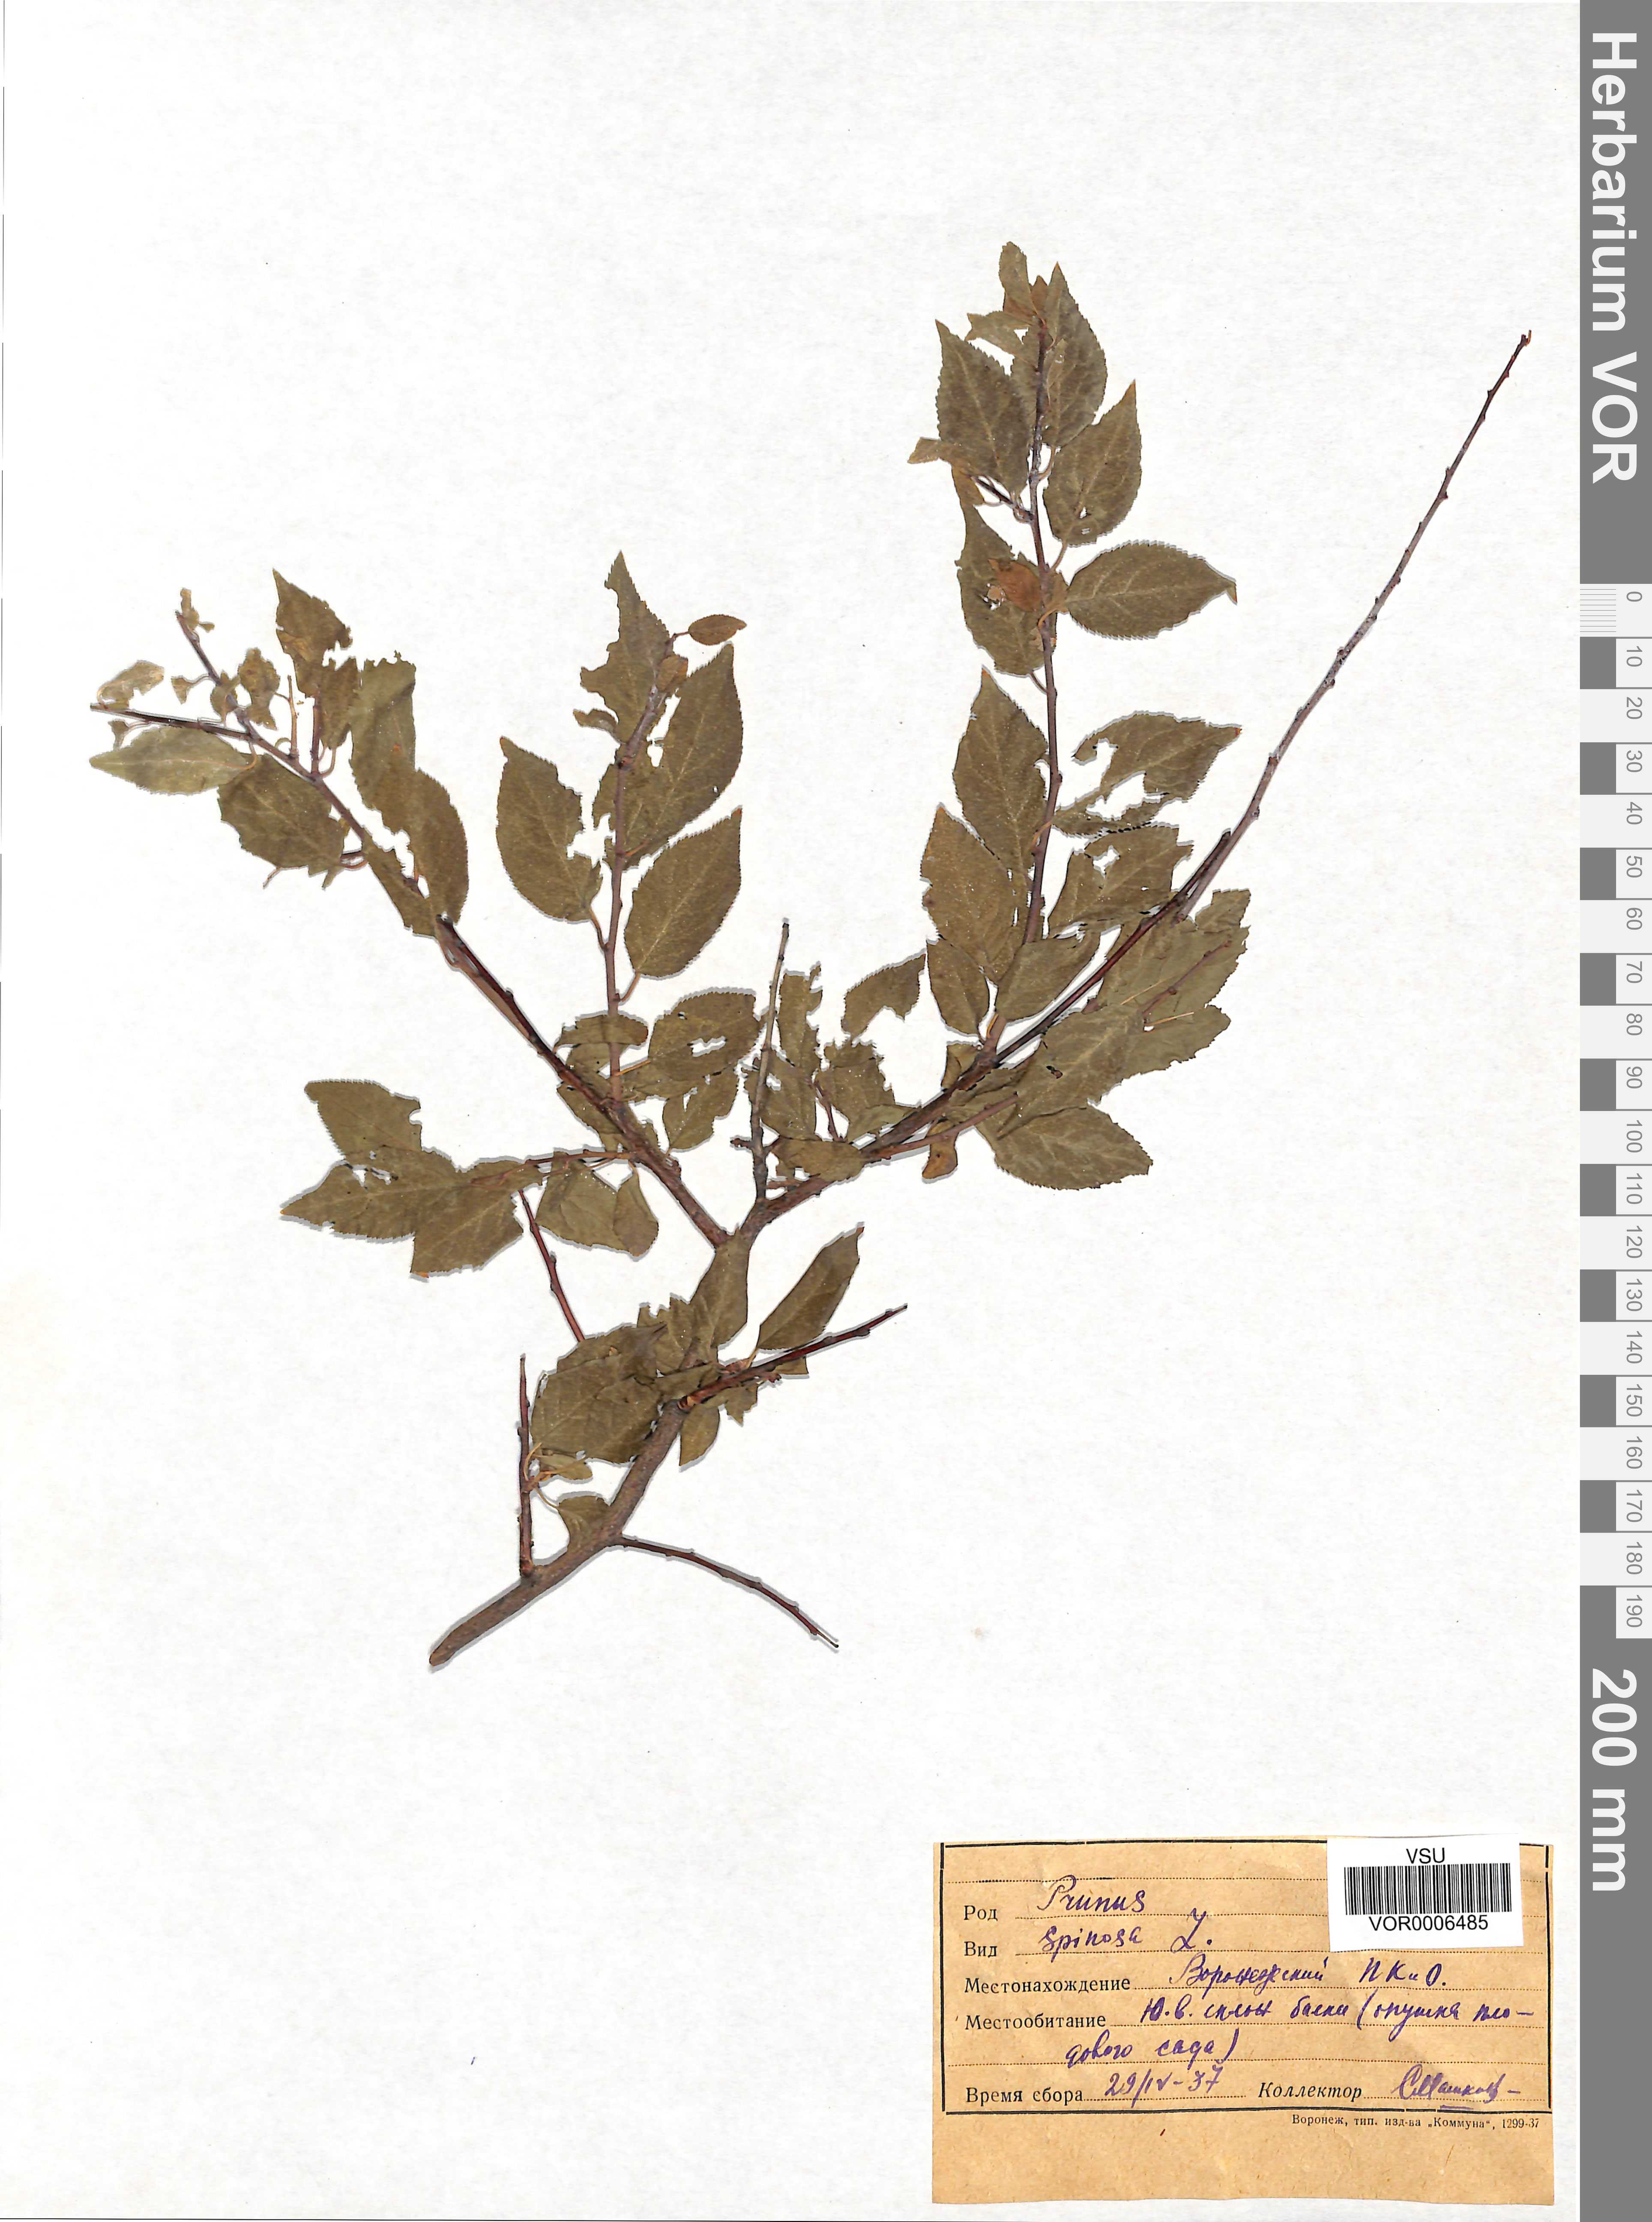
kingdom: Plantae
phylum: Tracheophyta
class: Magnoliopsida
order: Rosales
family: Rosaceae
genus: Prunus
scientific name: Prunus spinosa
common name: Blackthorn
